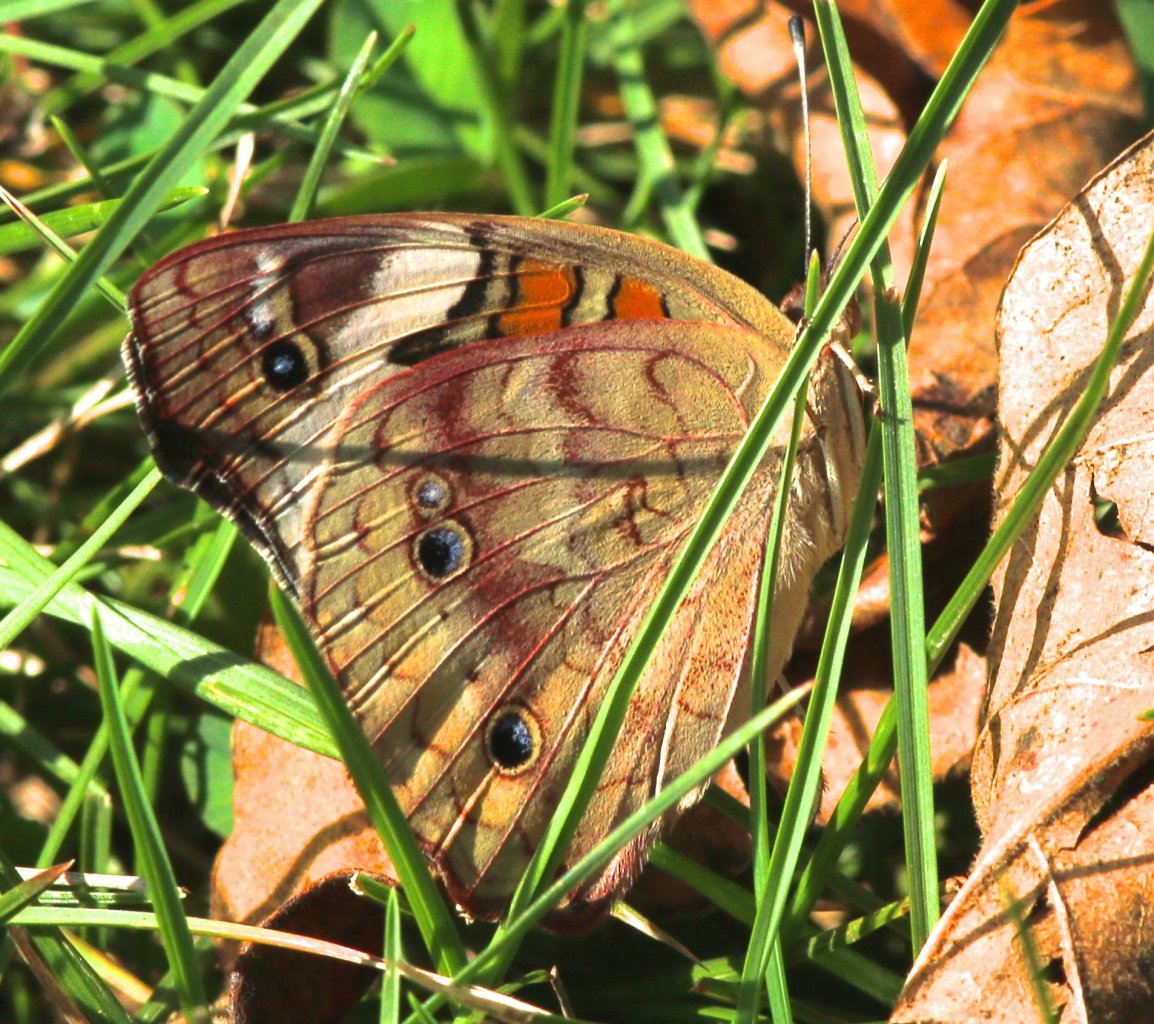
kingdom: Animalia
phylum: Arthropoda
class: Insecta
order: Lepidoptera
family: Nymphalidae
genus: Junonia
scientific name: Junonia coenia
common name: Common Buckeye
